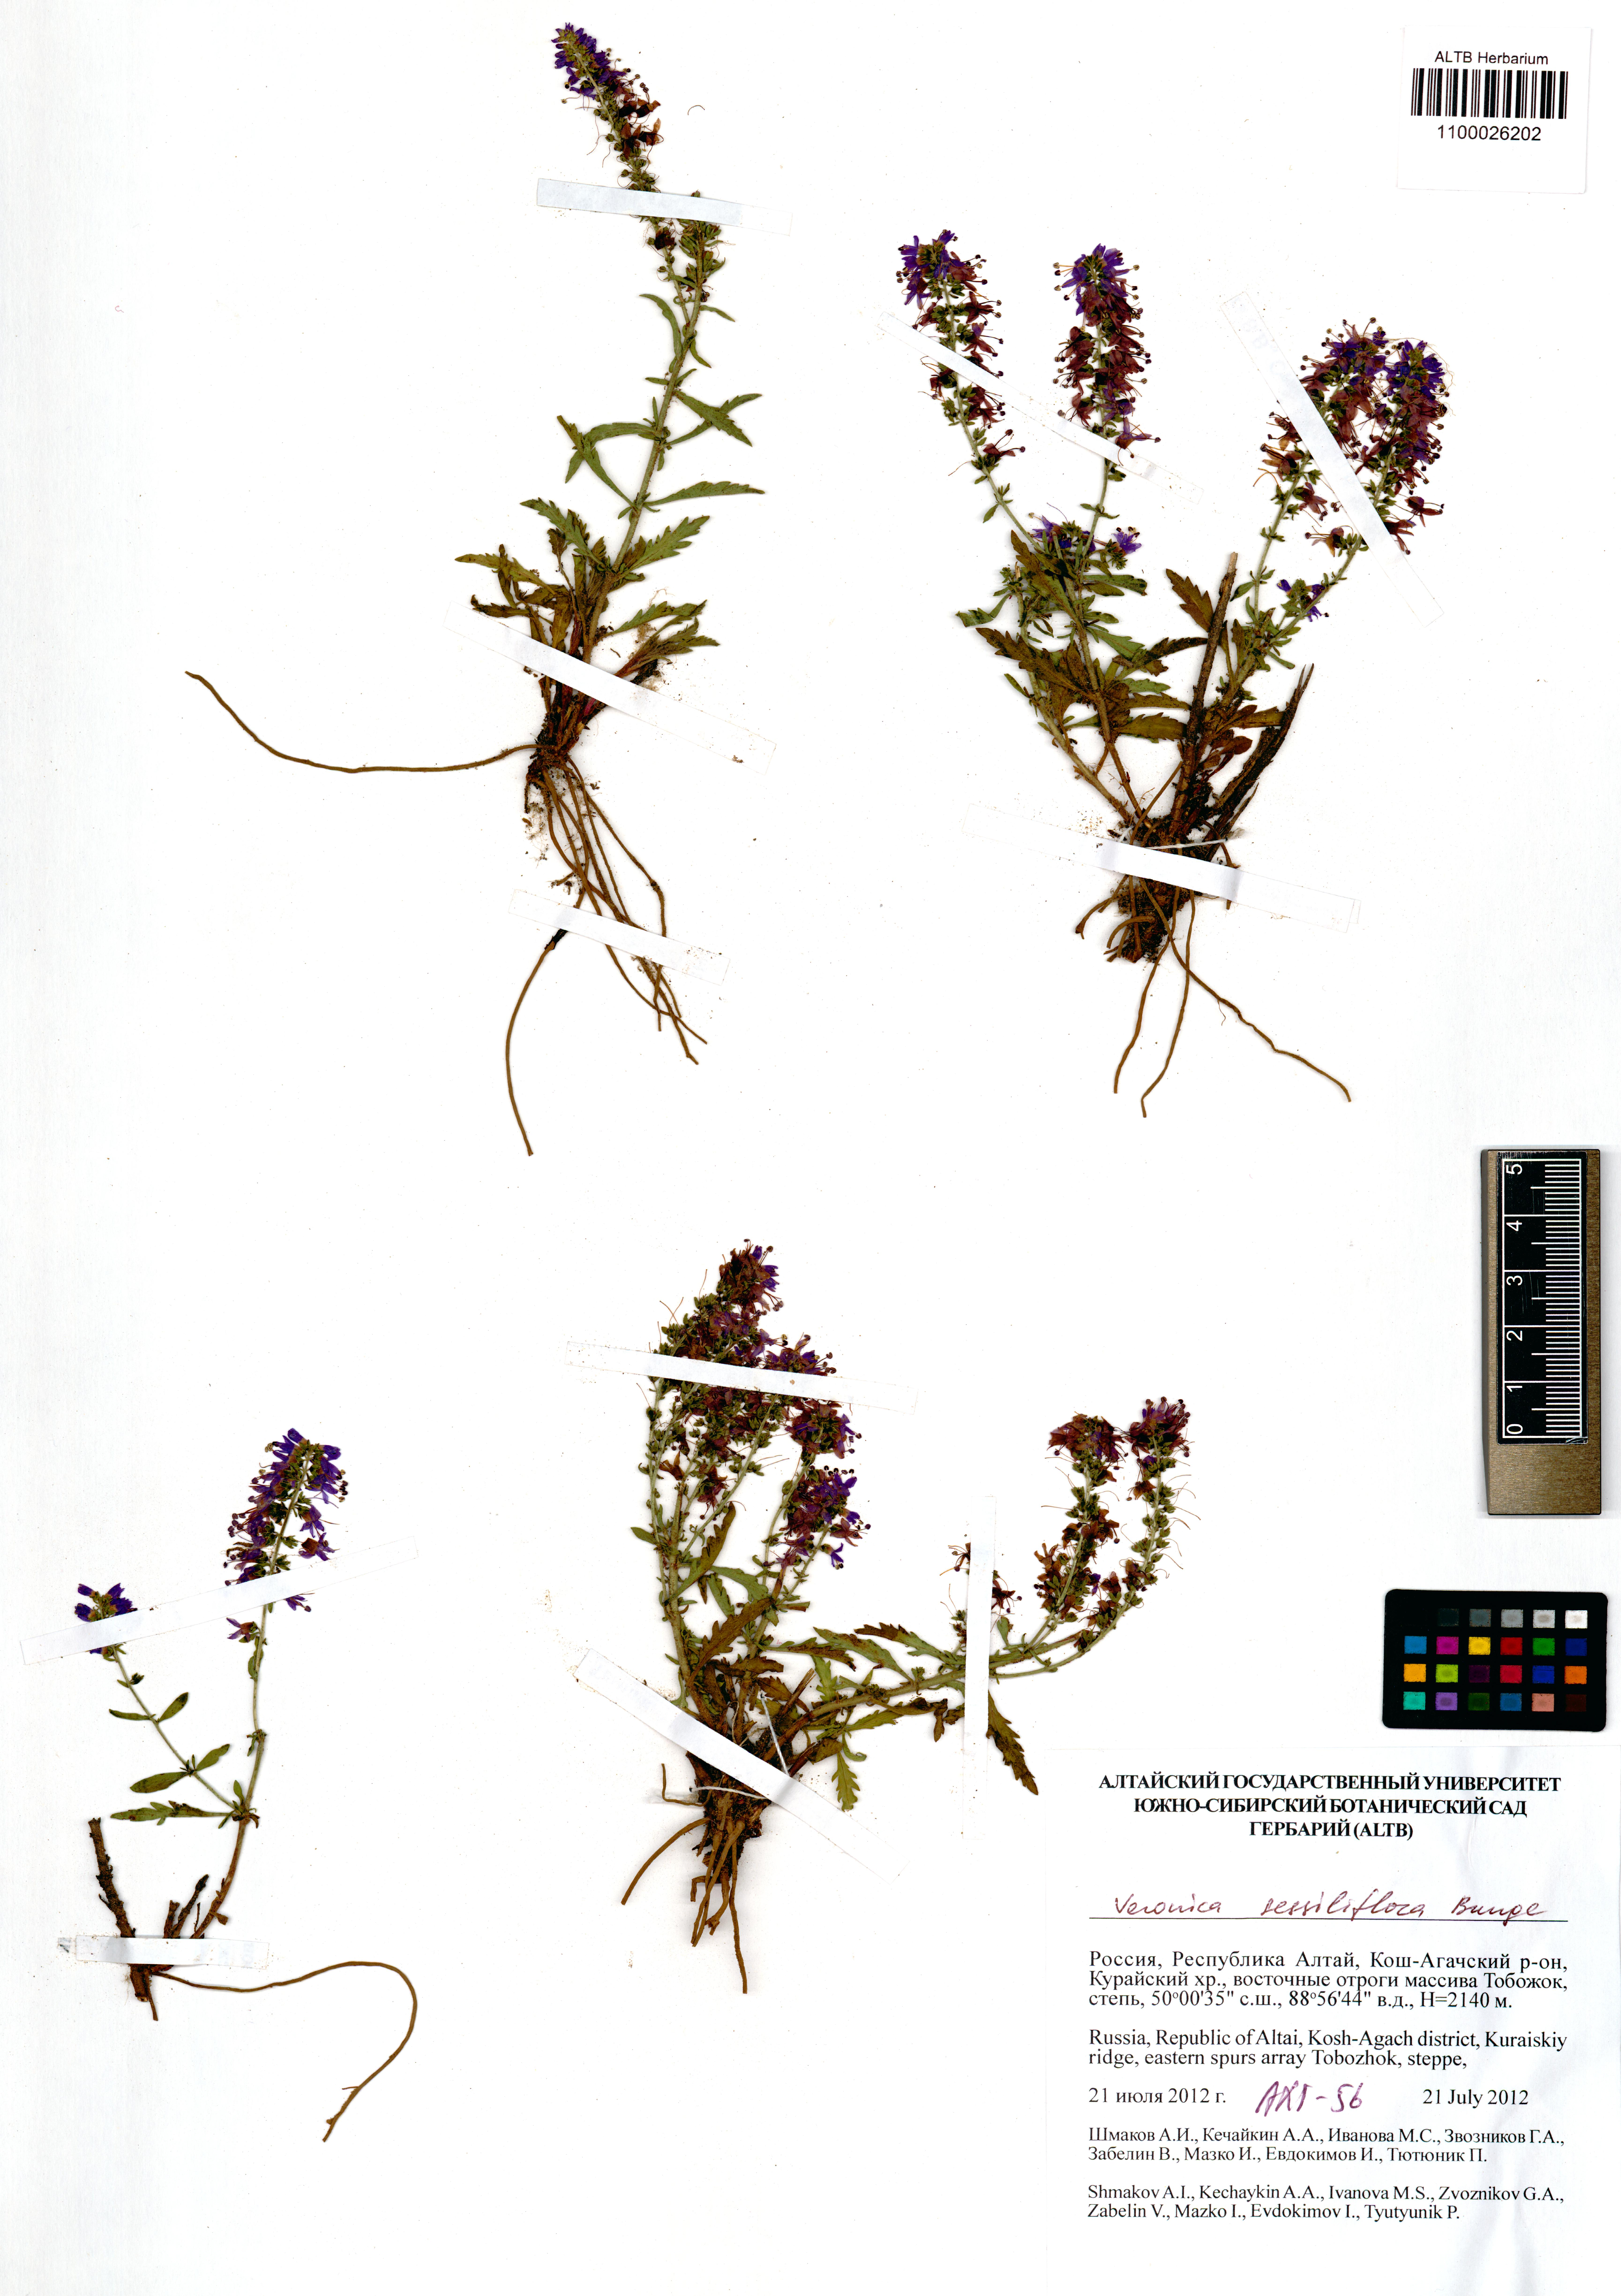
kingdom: Plantae
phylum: Tracheophyta
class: Magnoliopsida
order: Lamiales
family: Plantaginaceae
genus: Veronica
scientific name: Veronica sessiliflora
